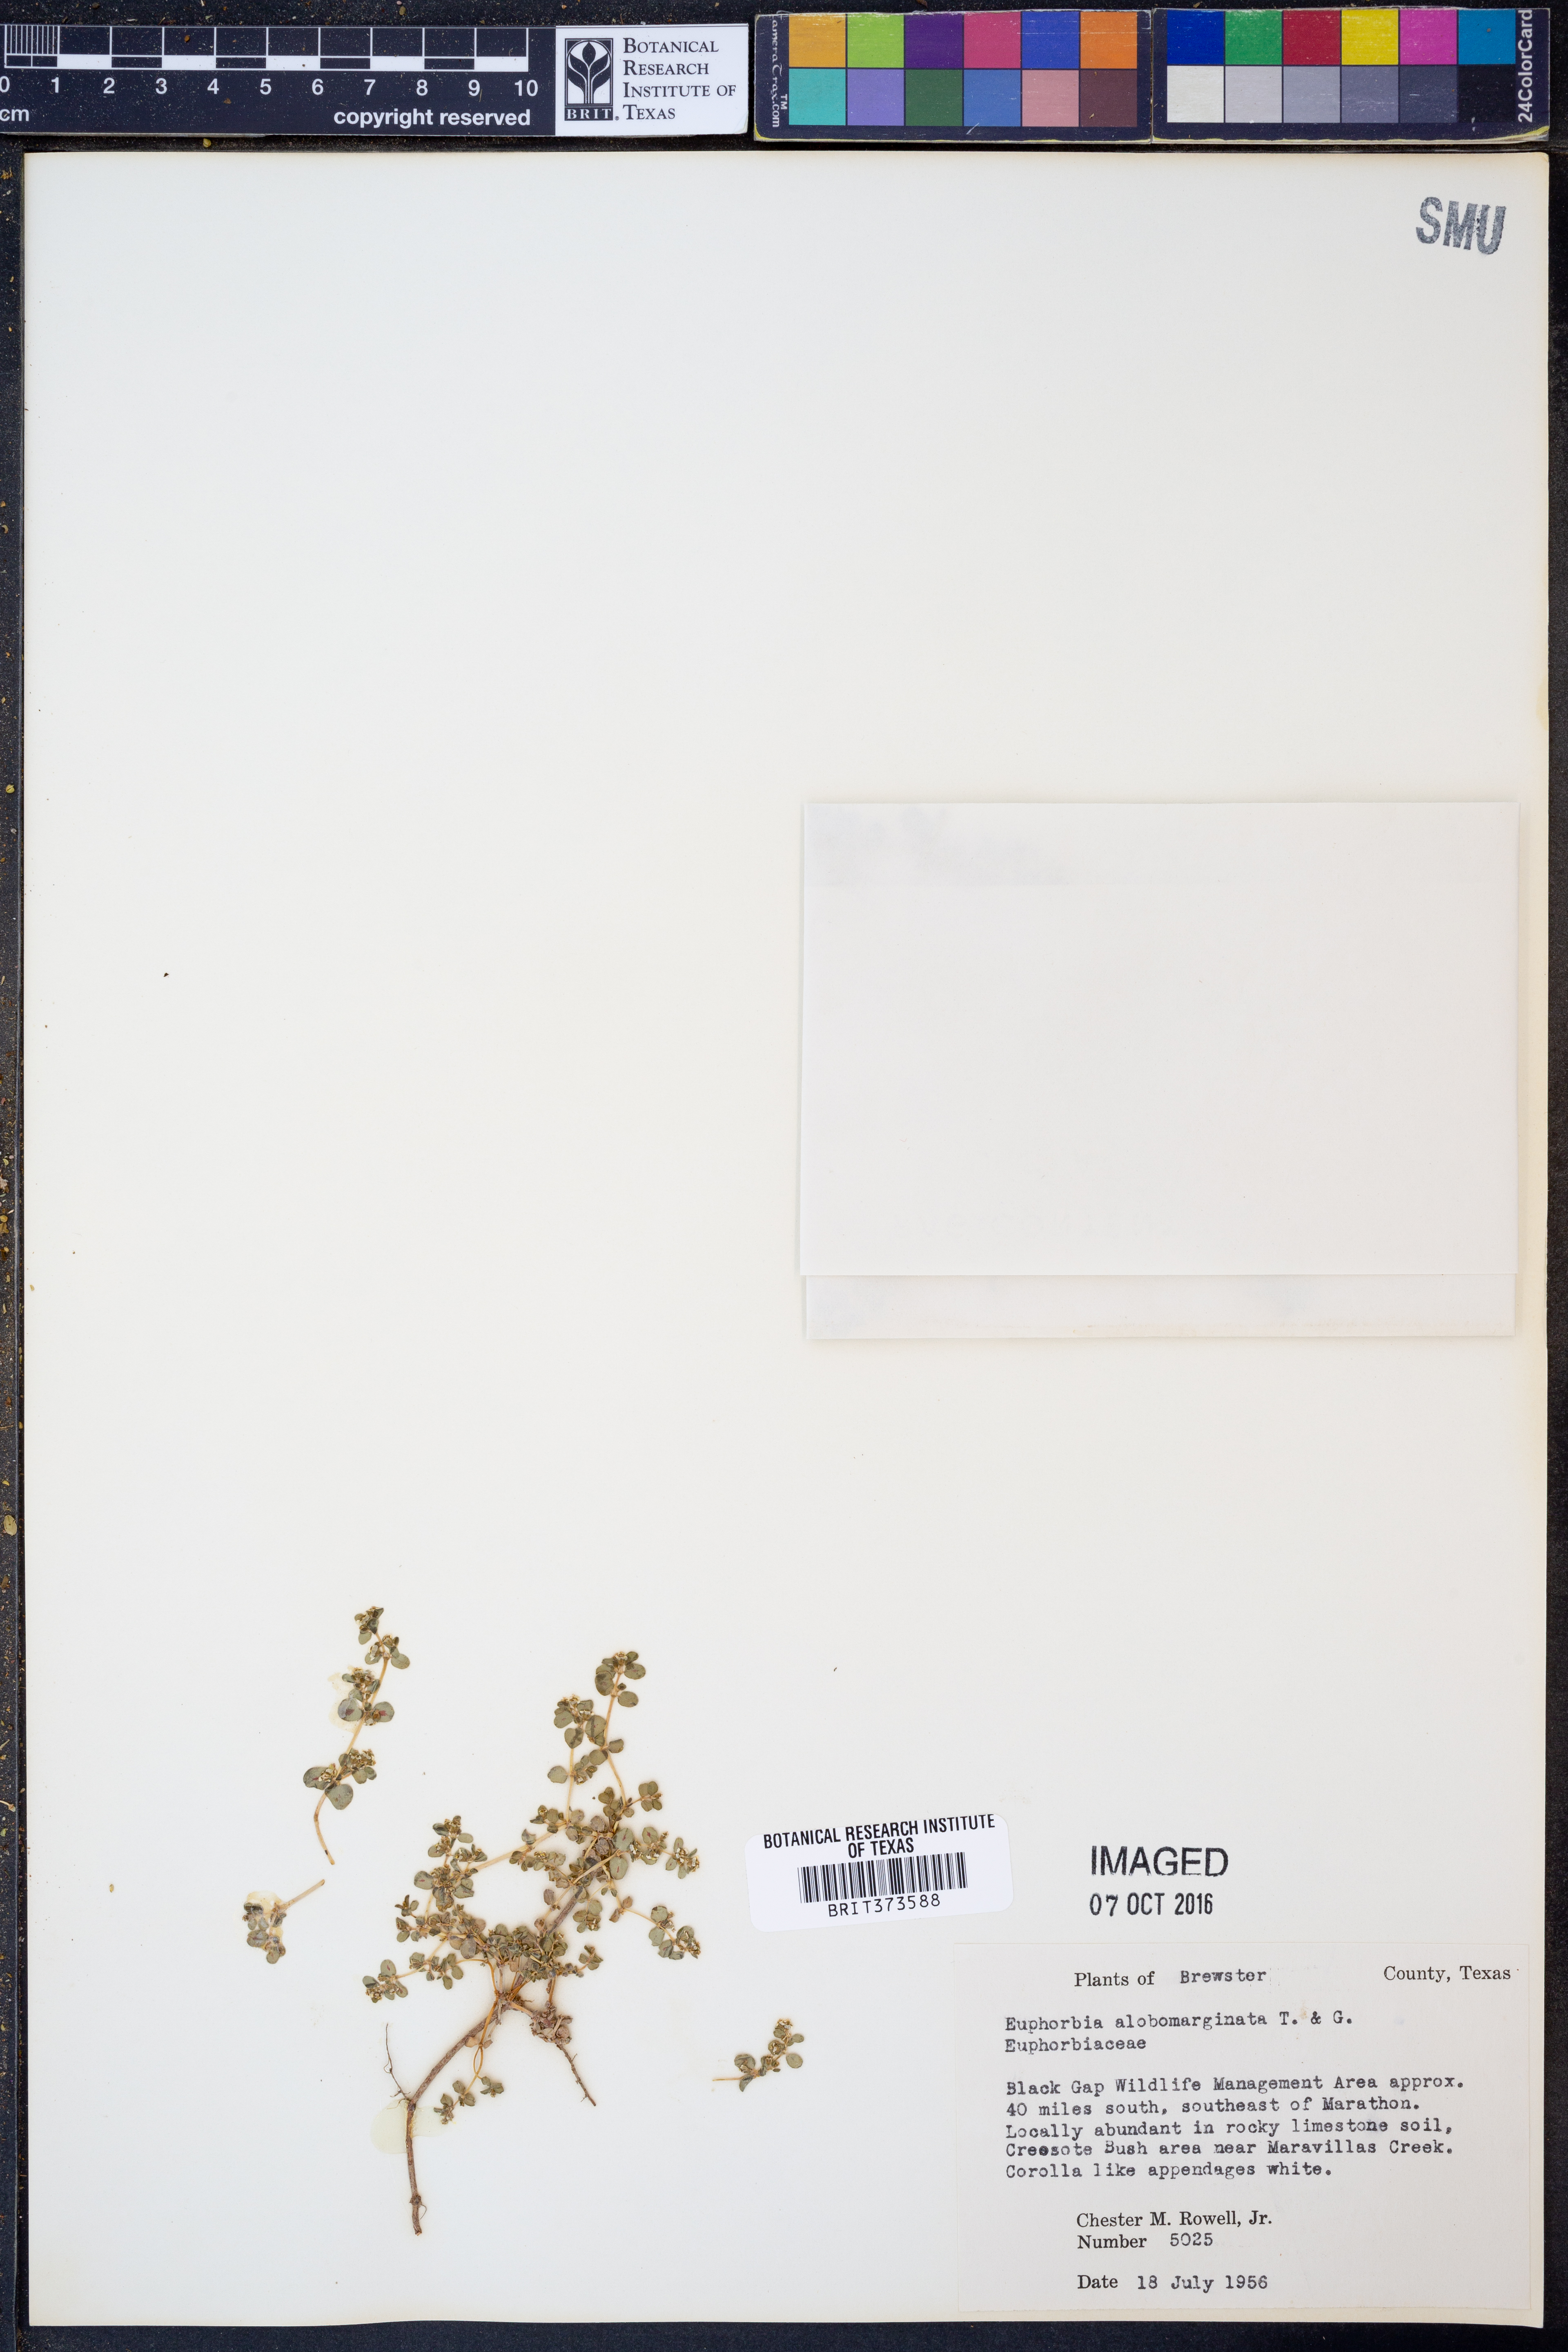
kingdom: Plantae
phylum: Tracheophyta
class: Magnoliopsida
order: Malpighiales
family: Euphorbiaceae
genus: Euphorbia
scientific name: Euphorbia albomarginata
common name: Whitemargin sandmat
